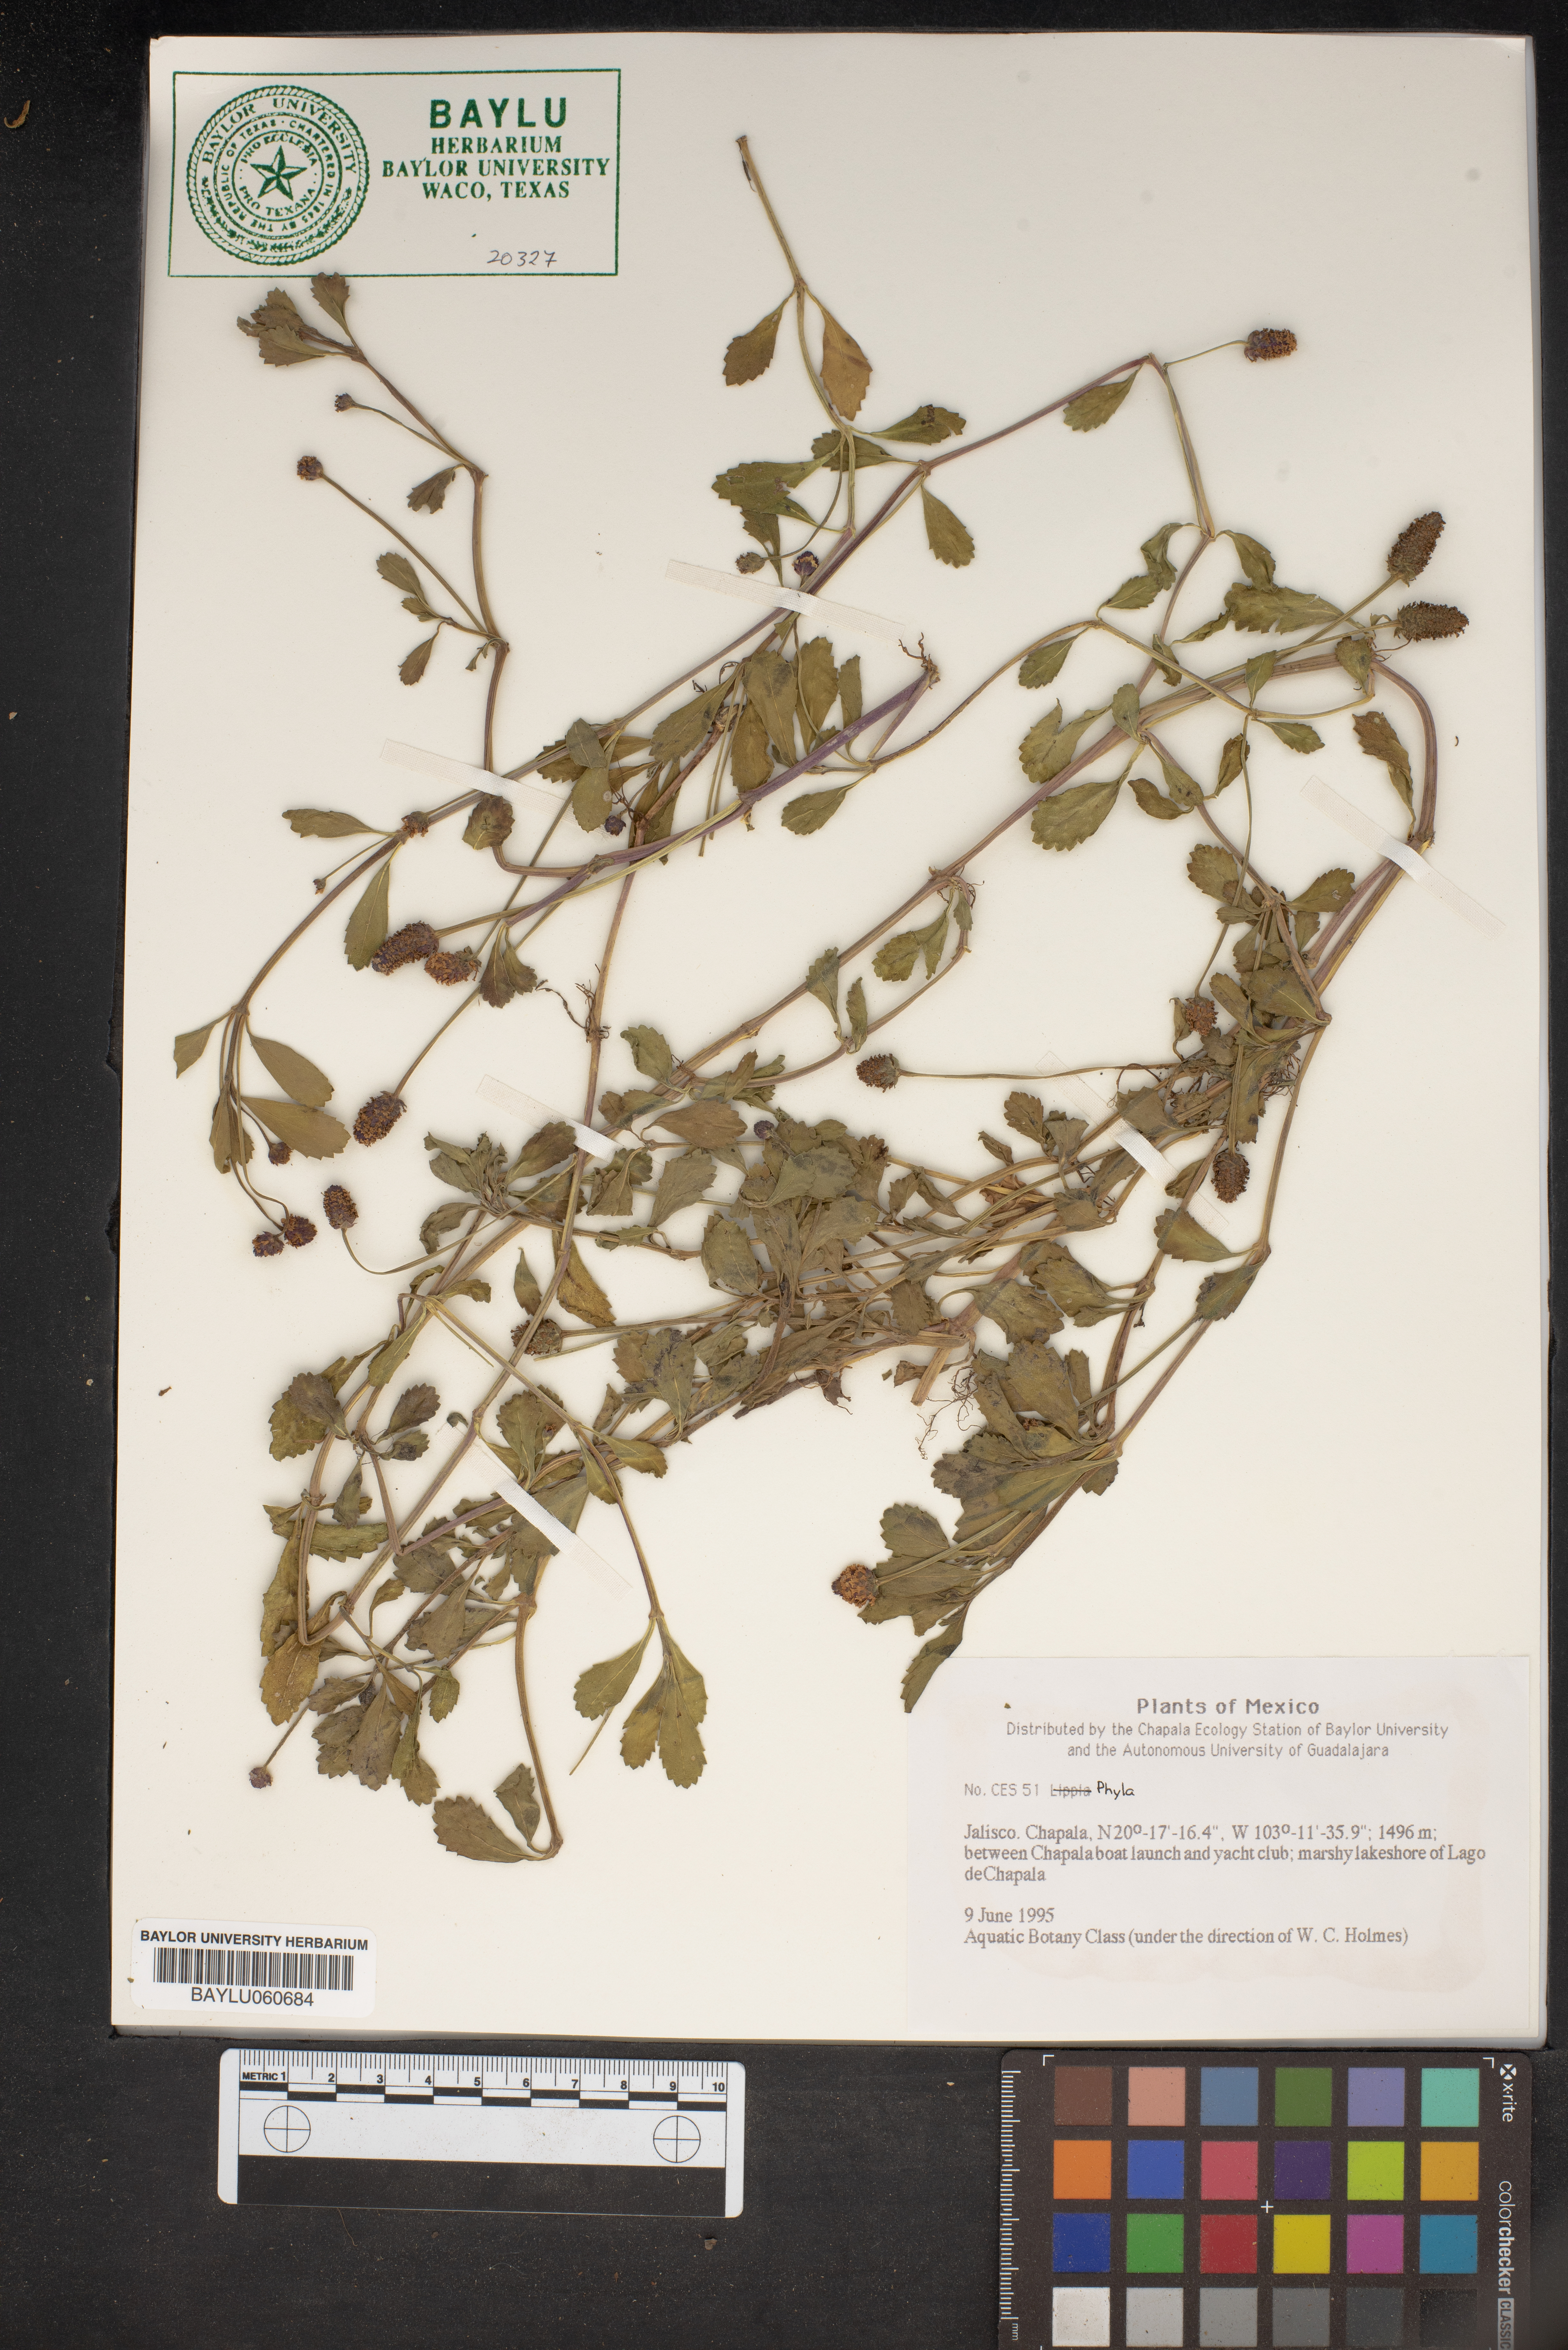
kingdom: Plantae
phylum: Tracheophyta
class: Magnoliopsida
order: Lamiales
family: Verbenaceae
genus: Phyla
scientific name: Phyla
